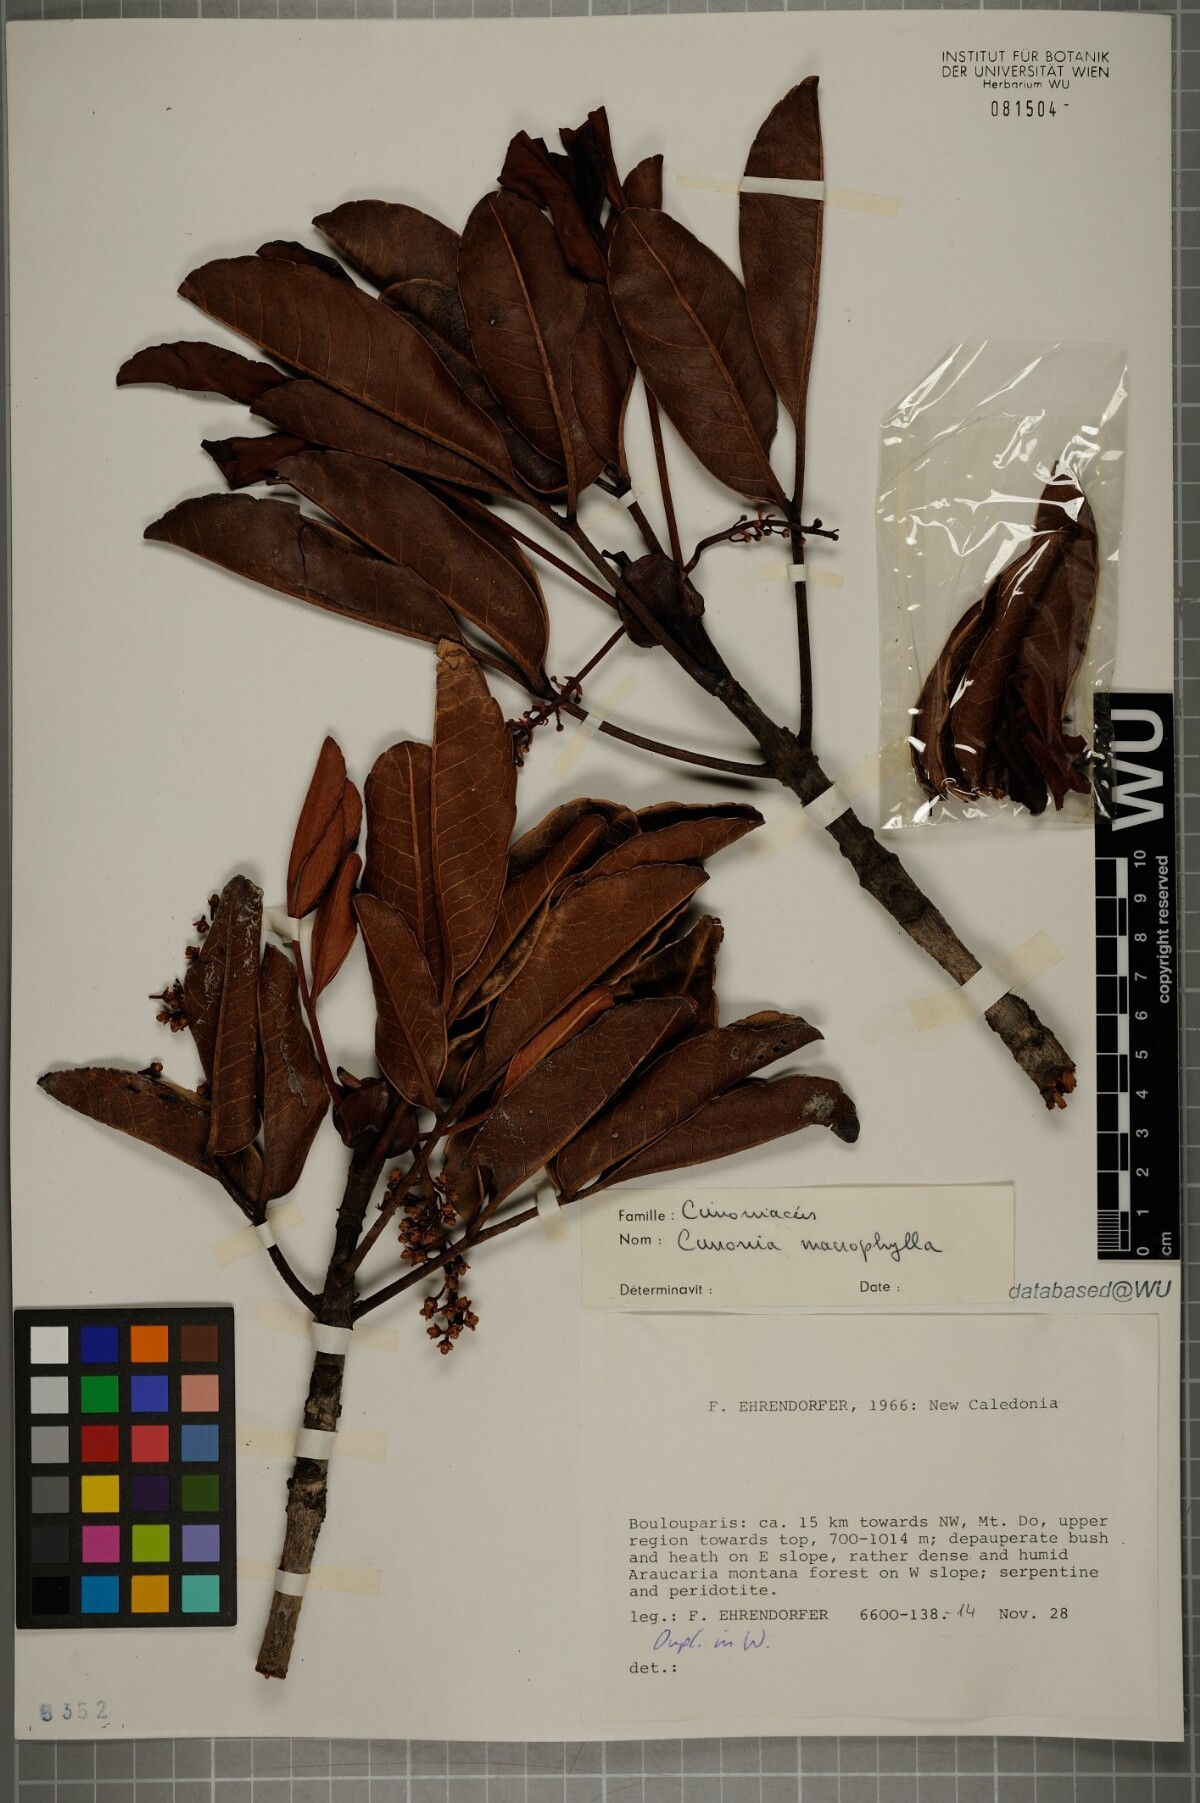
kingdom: Plantae
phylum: Tracheophyta
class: Magnoliopsida
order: Oxalidales
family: Cunoniaceae
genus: Cunonia
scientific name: Cunonia macrophylla
